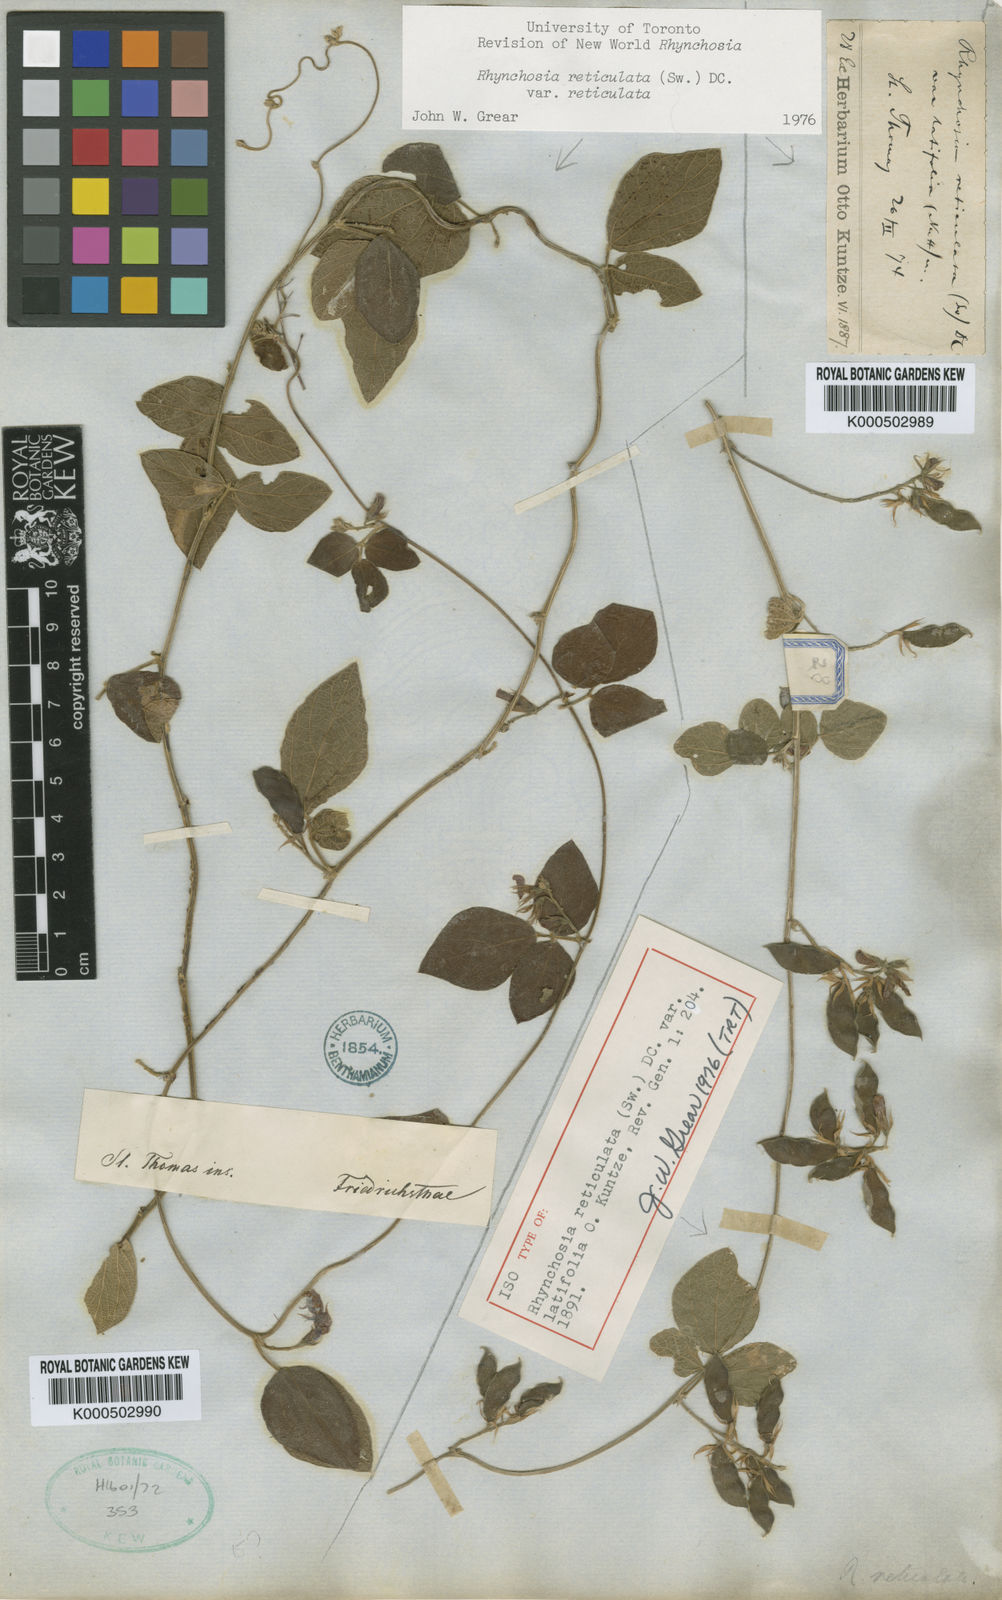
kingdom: Plantae
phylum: Tracheophyta
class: Magnoliopsida
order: Fabales
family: Fabaceae
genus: Rhynchosia
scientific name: Rhynchosia reticulata
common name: Pea withe
